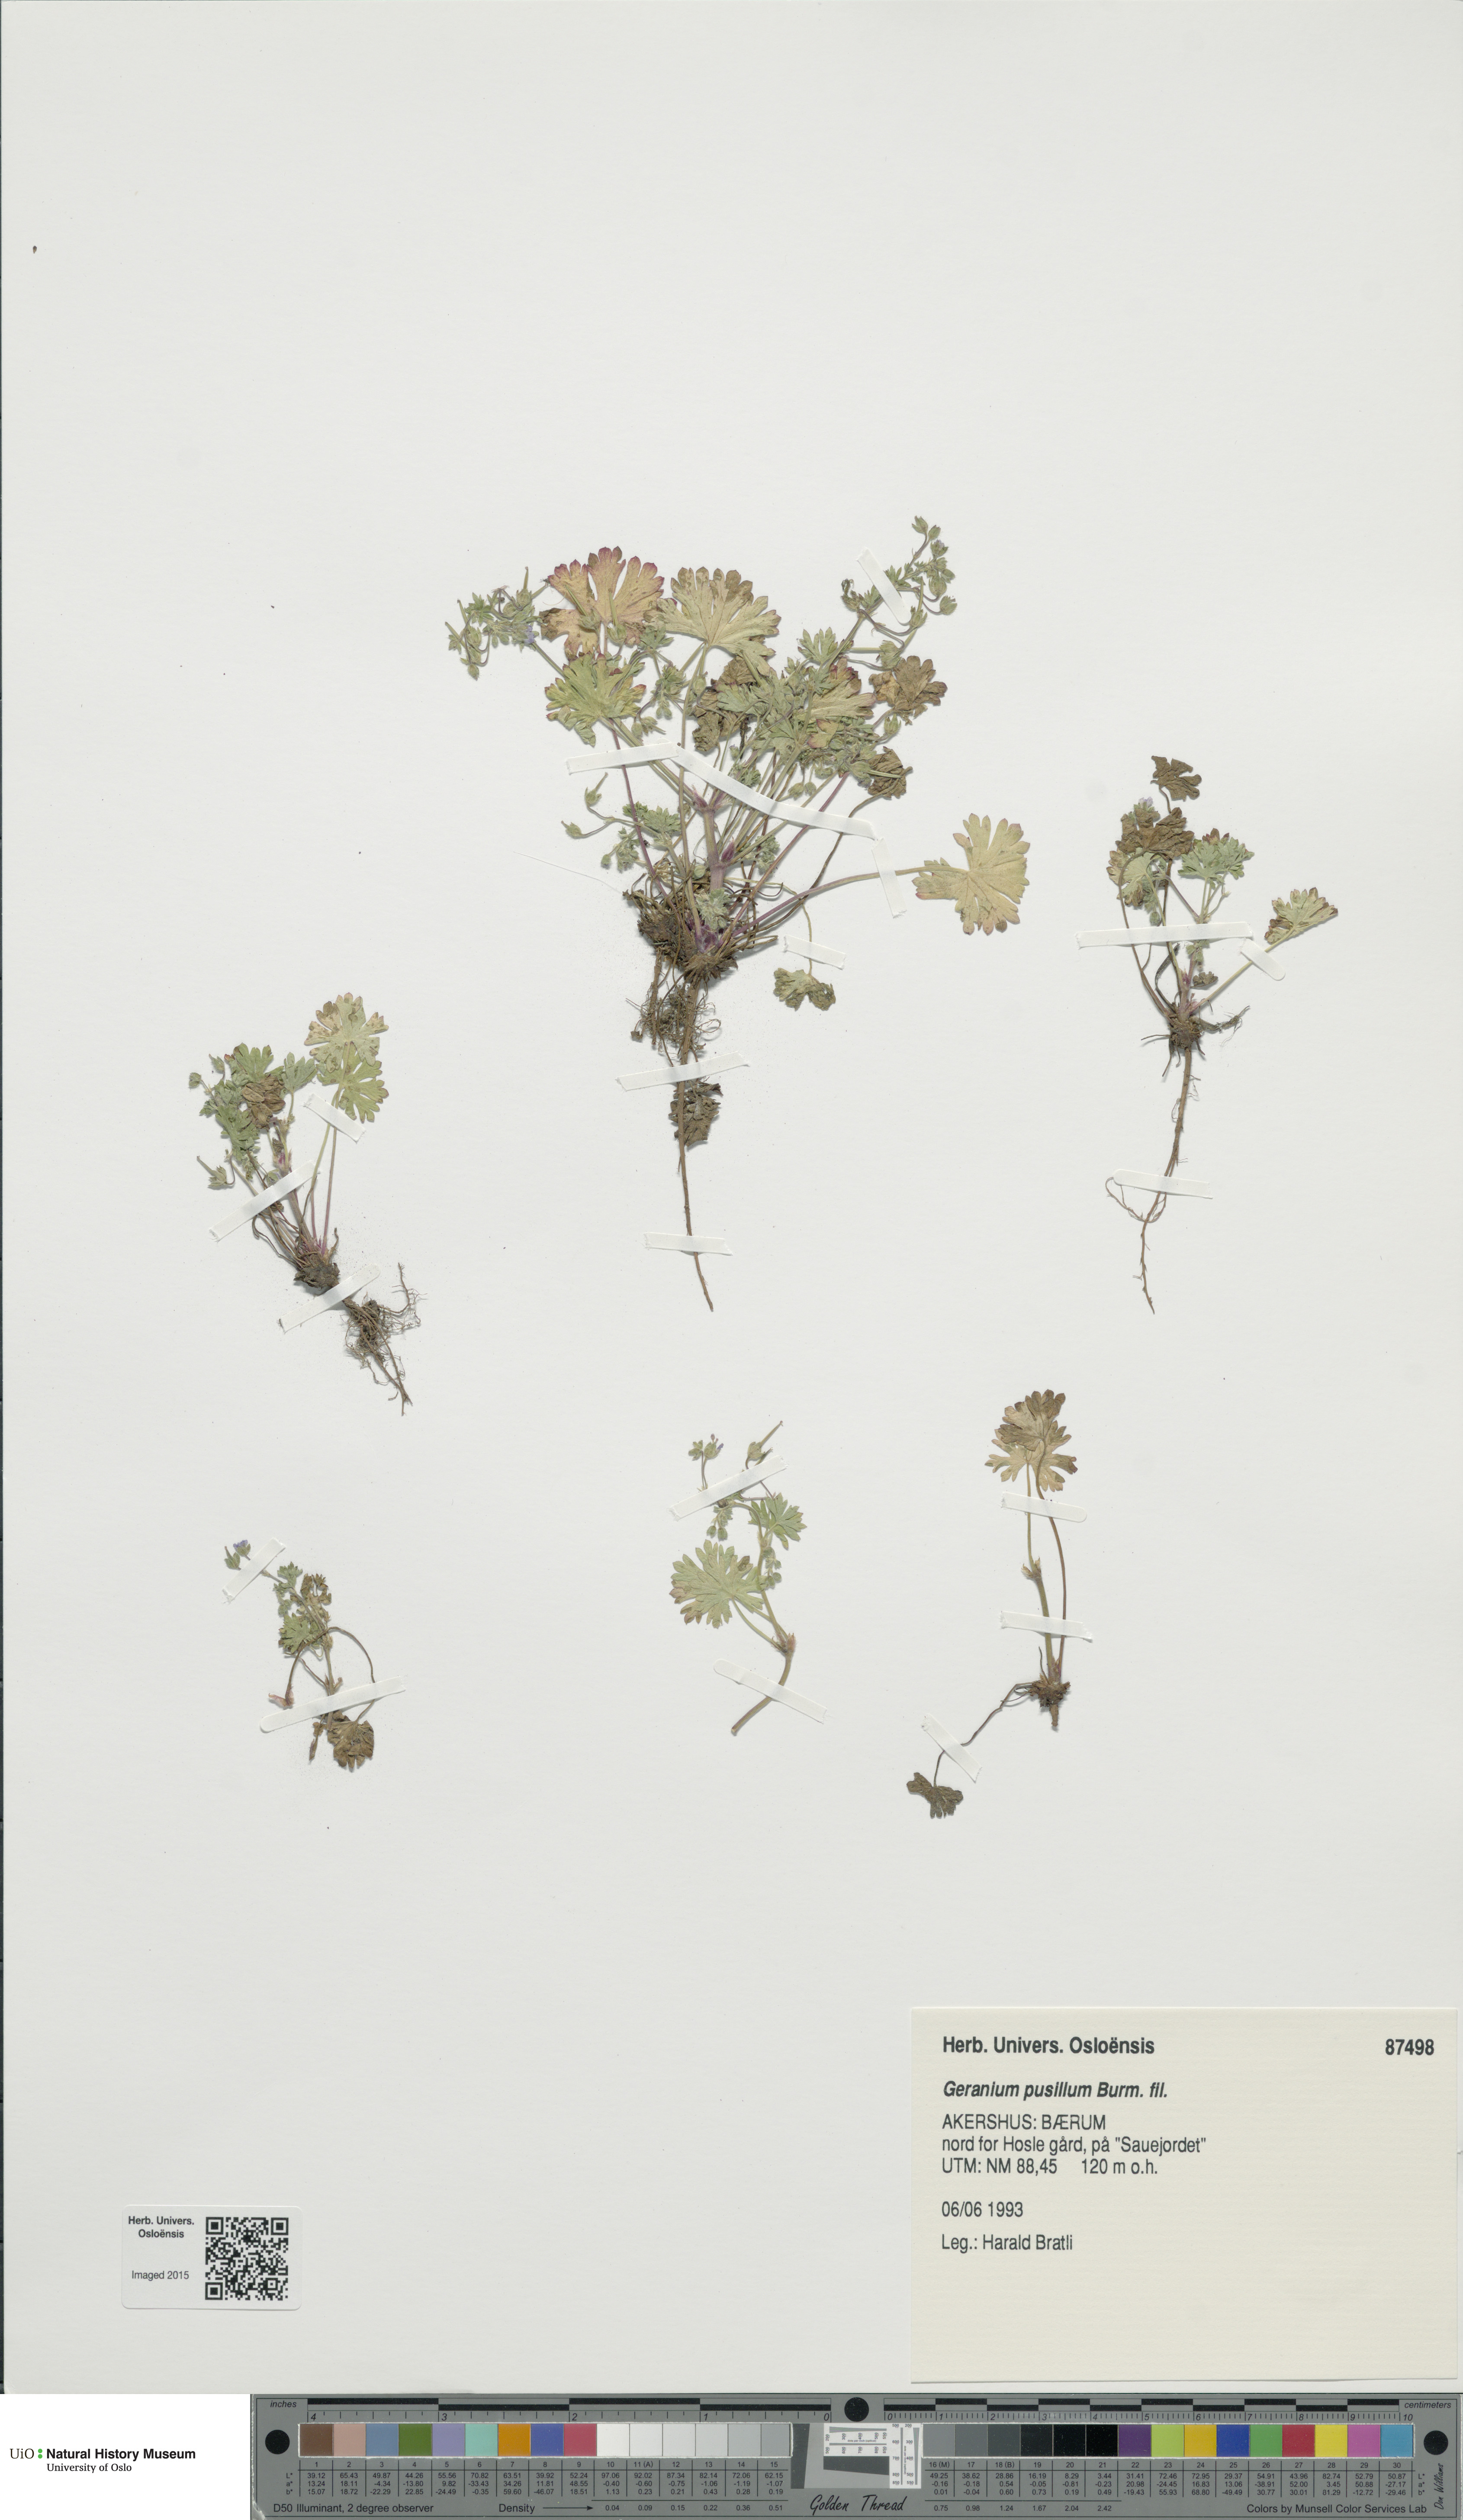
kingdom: Plantae
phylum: Tracheophyta
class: Magnoliopsida
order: Geraniales
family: Geraniaceae
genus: Geranium
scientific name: Geranium pusillum
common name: Small geranium
